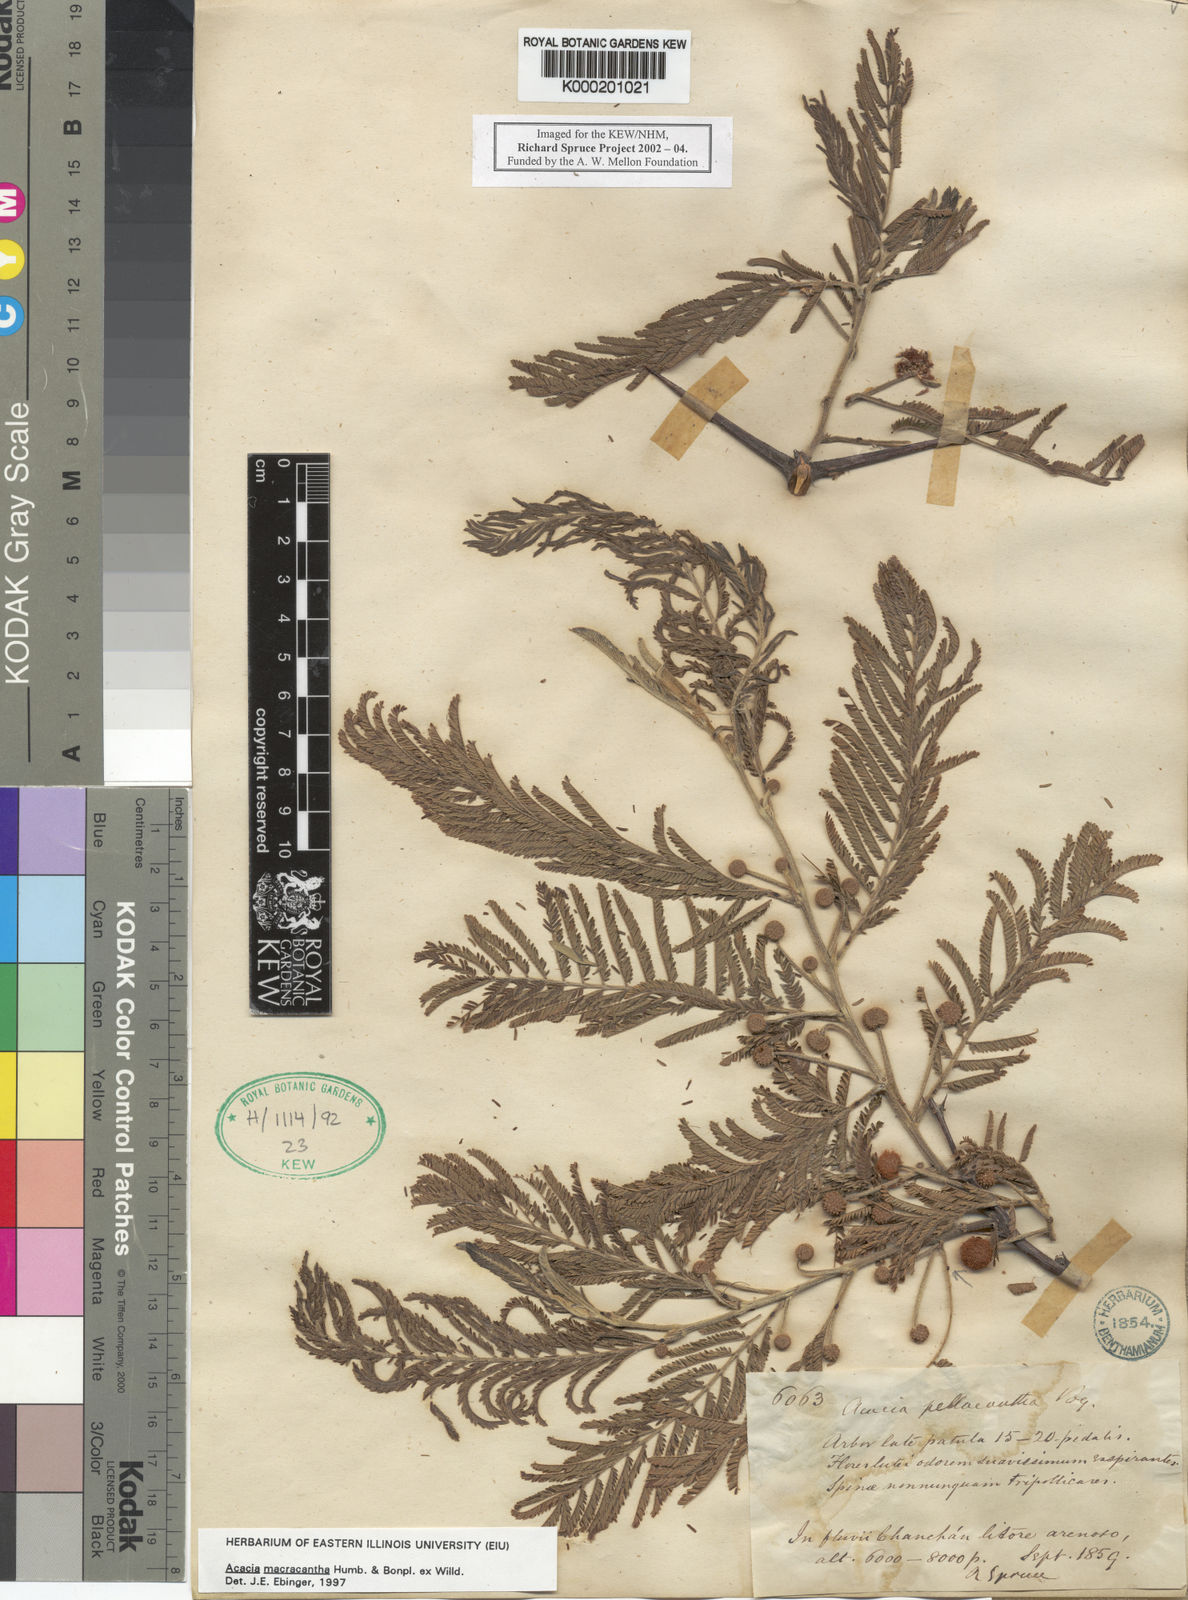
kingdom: Plantae
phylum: Tracheophyta
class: Magnoliopsida
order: Fabales
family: Fabaceae
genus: Vachellia
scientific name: Vachellia macracantha
